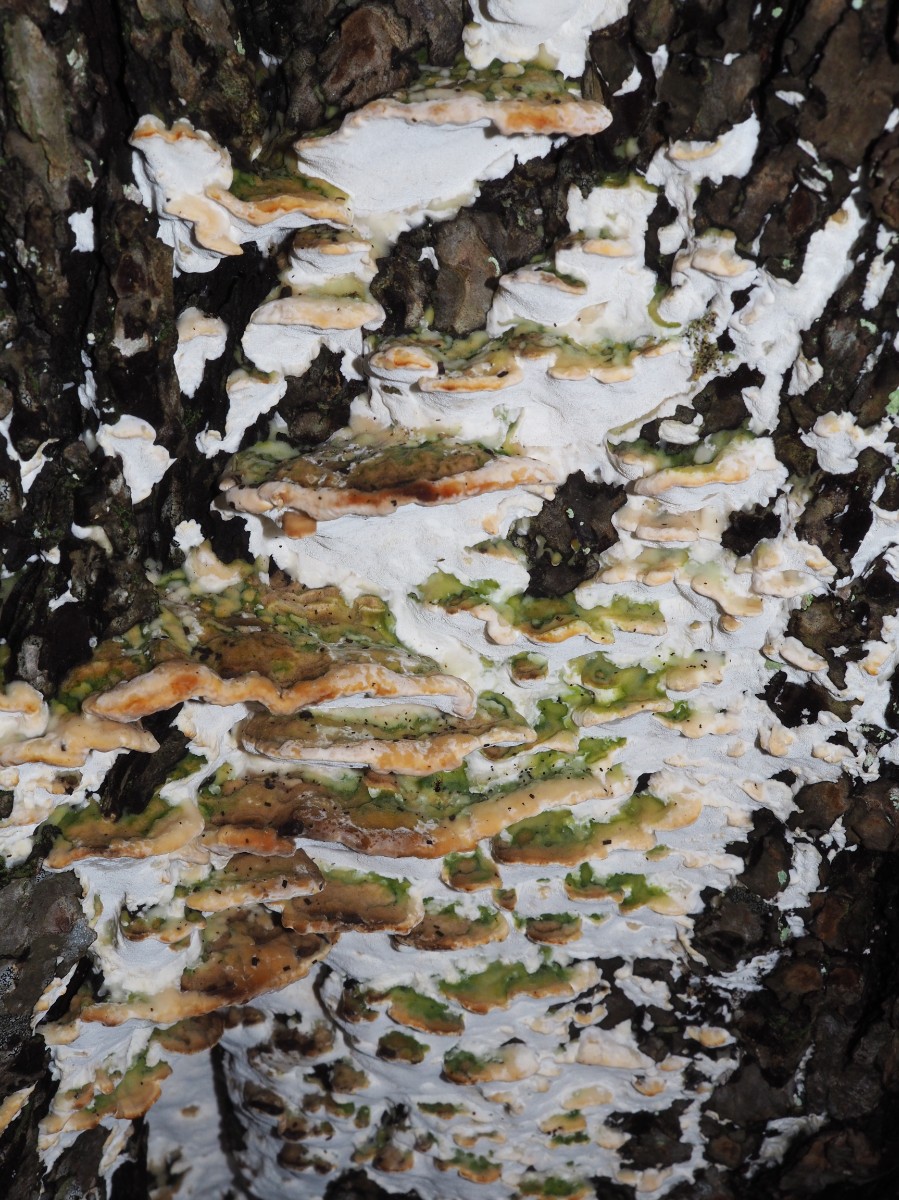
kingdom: Fungi
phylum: Basidiomycota
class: Agaricomycetes
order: Hymenochaetales
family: Oxyporaceae
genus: Oxyporus
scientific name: Oxyporus populinus
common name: sammenvokset trylleporesvamp
